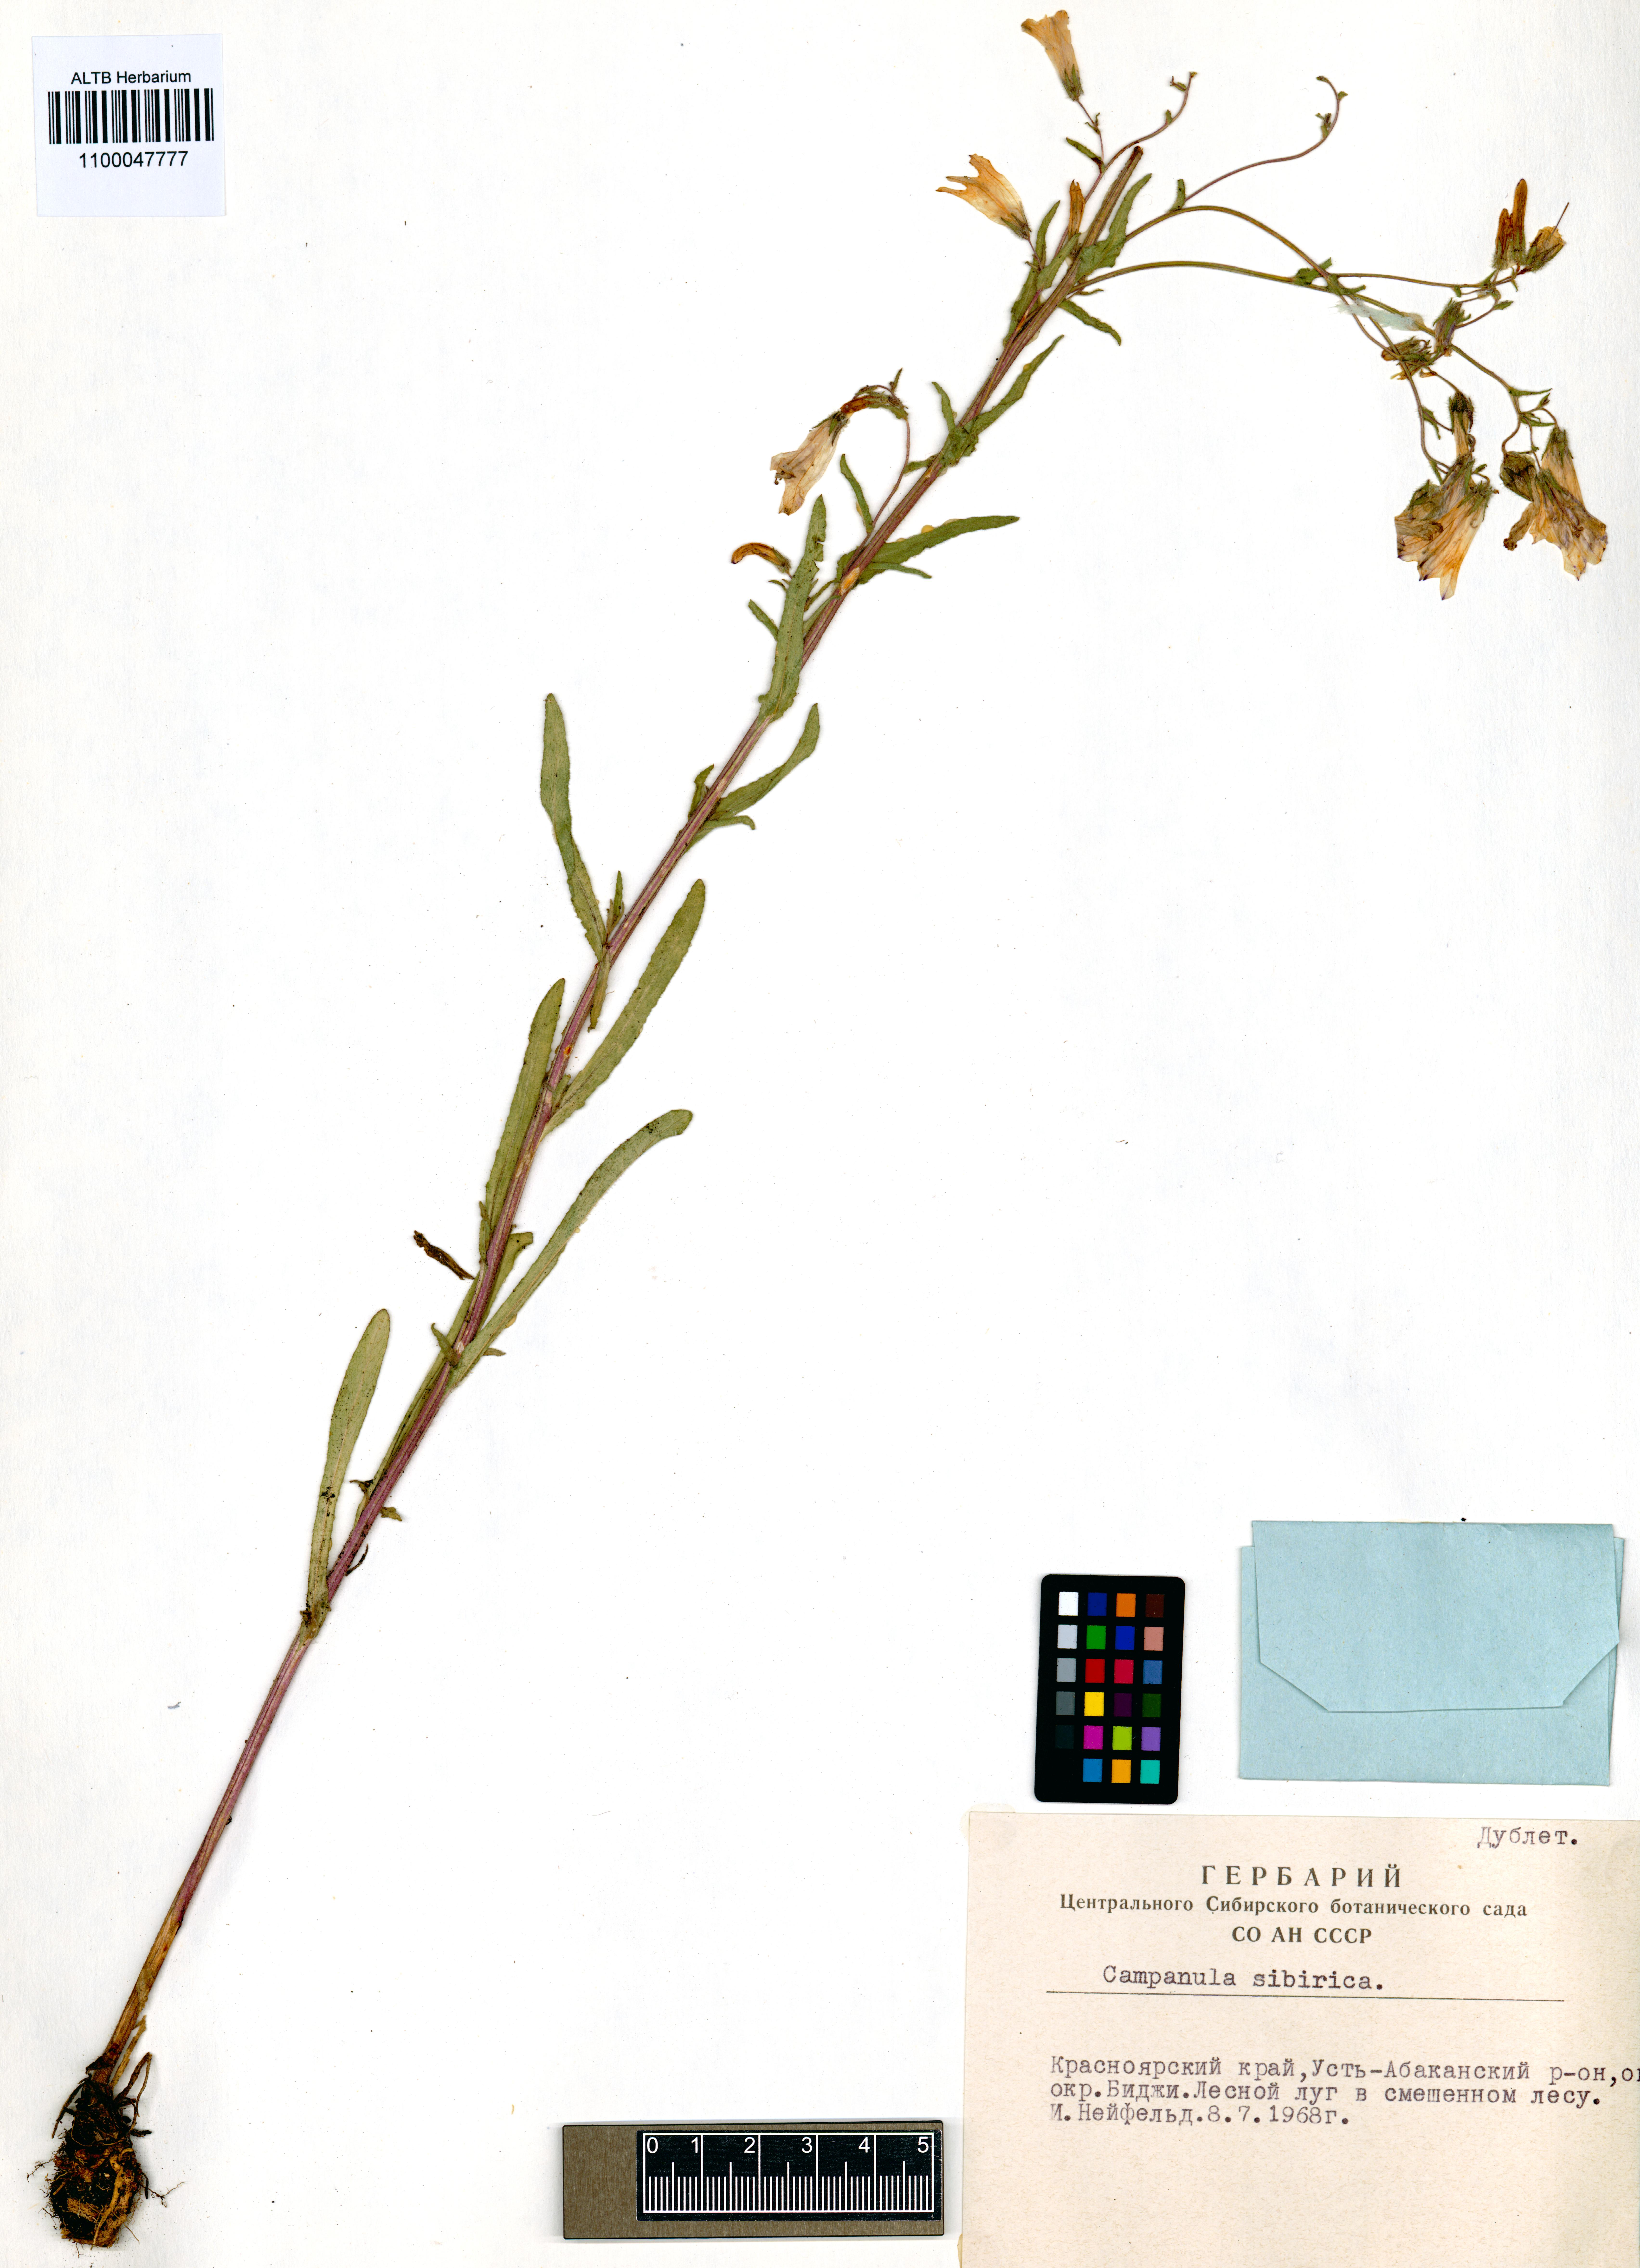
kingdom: Plantae
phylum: Tracheophyta
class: Magnoliopsida
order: Asterales
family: Campanulaceae
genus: Campanula
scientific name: Campanula sibirica
